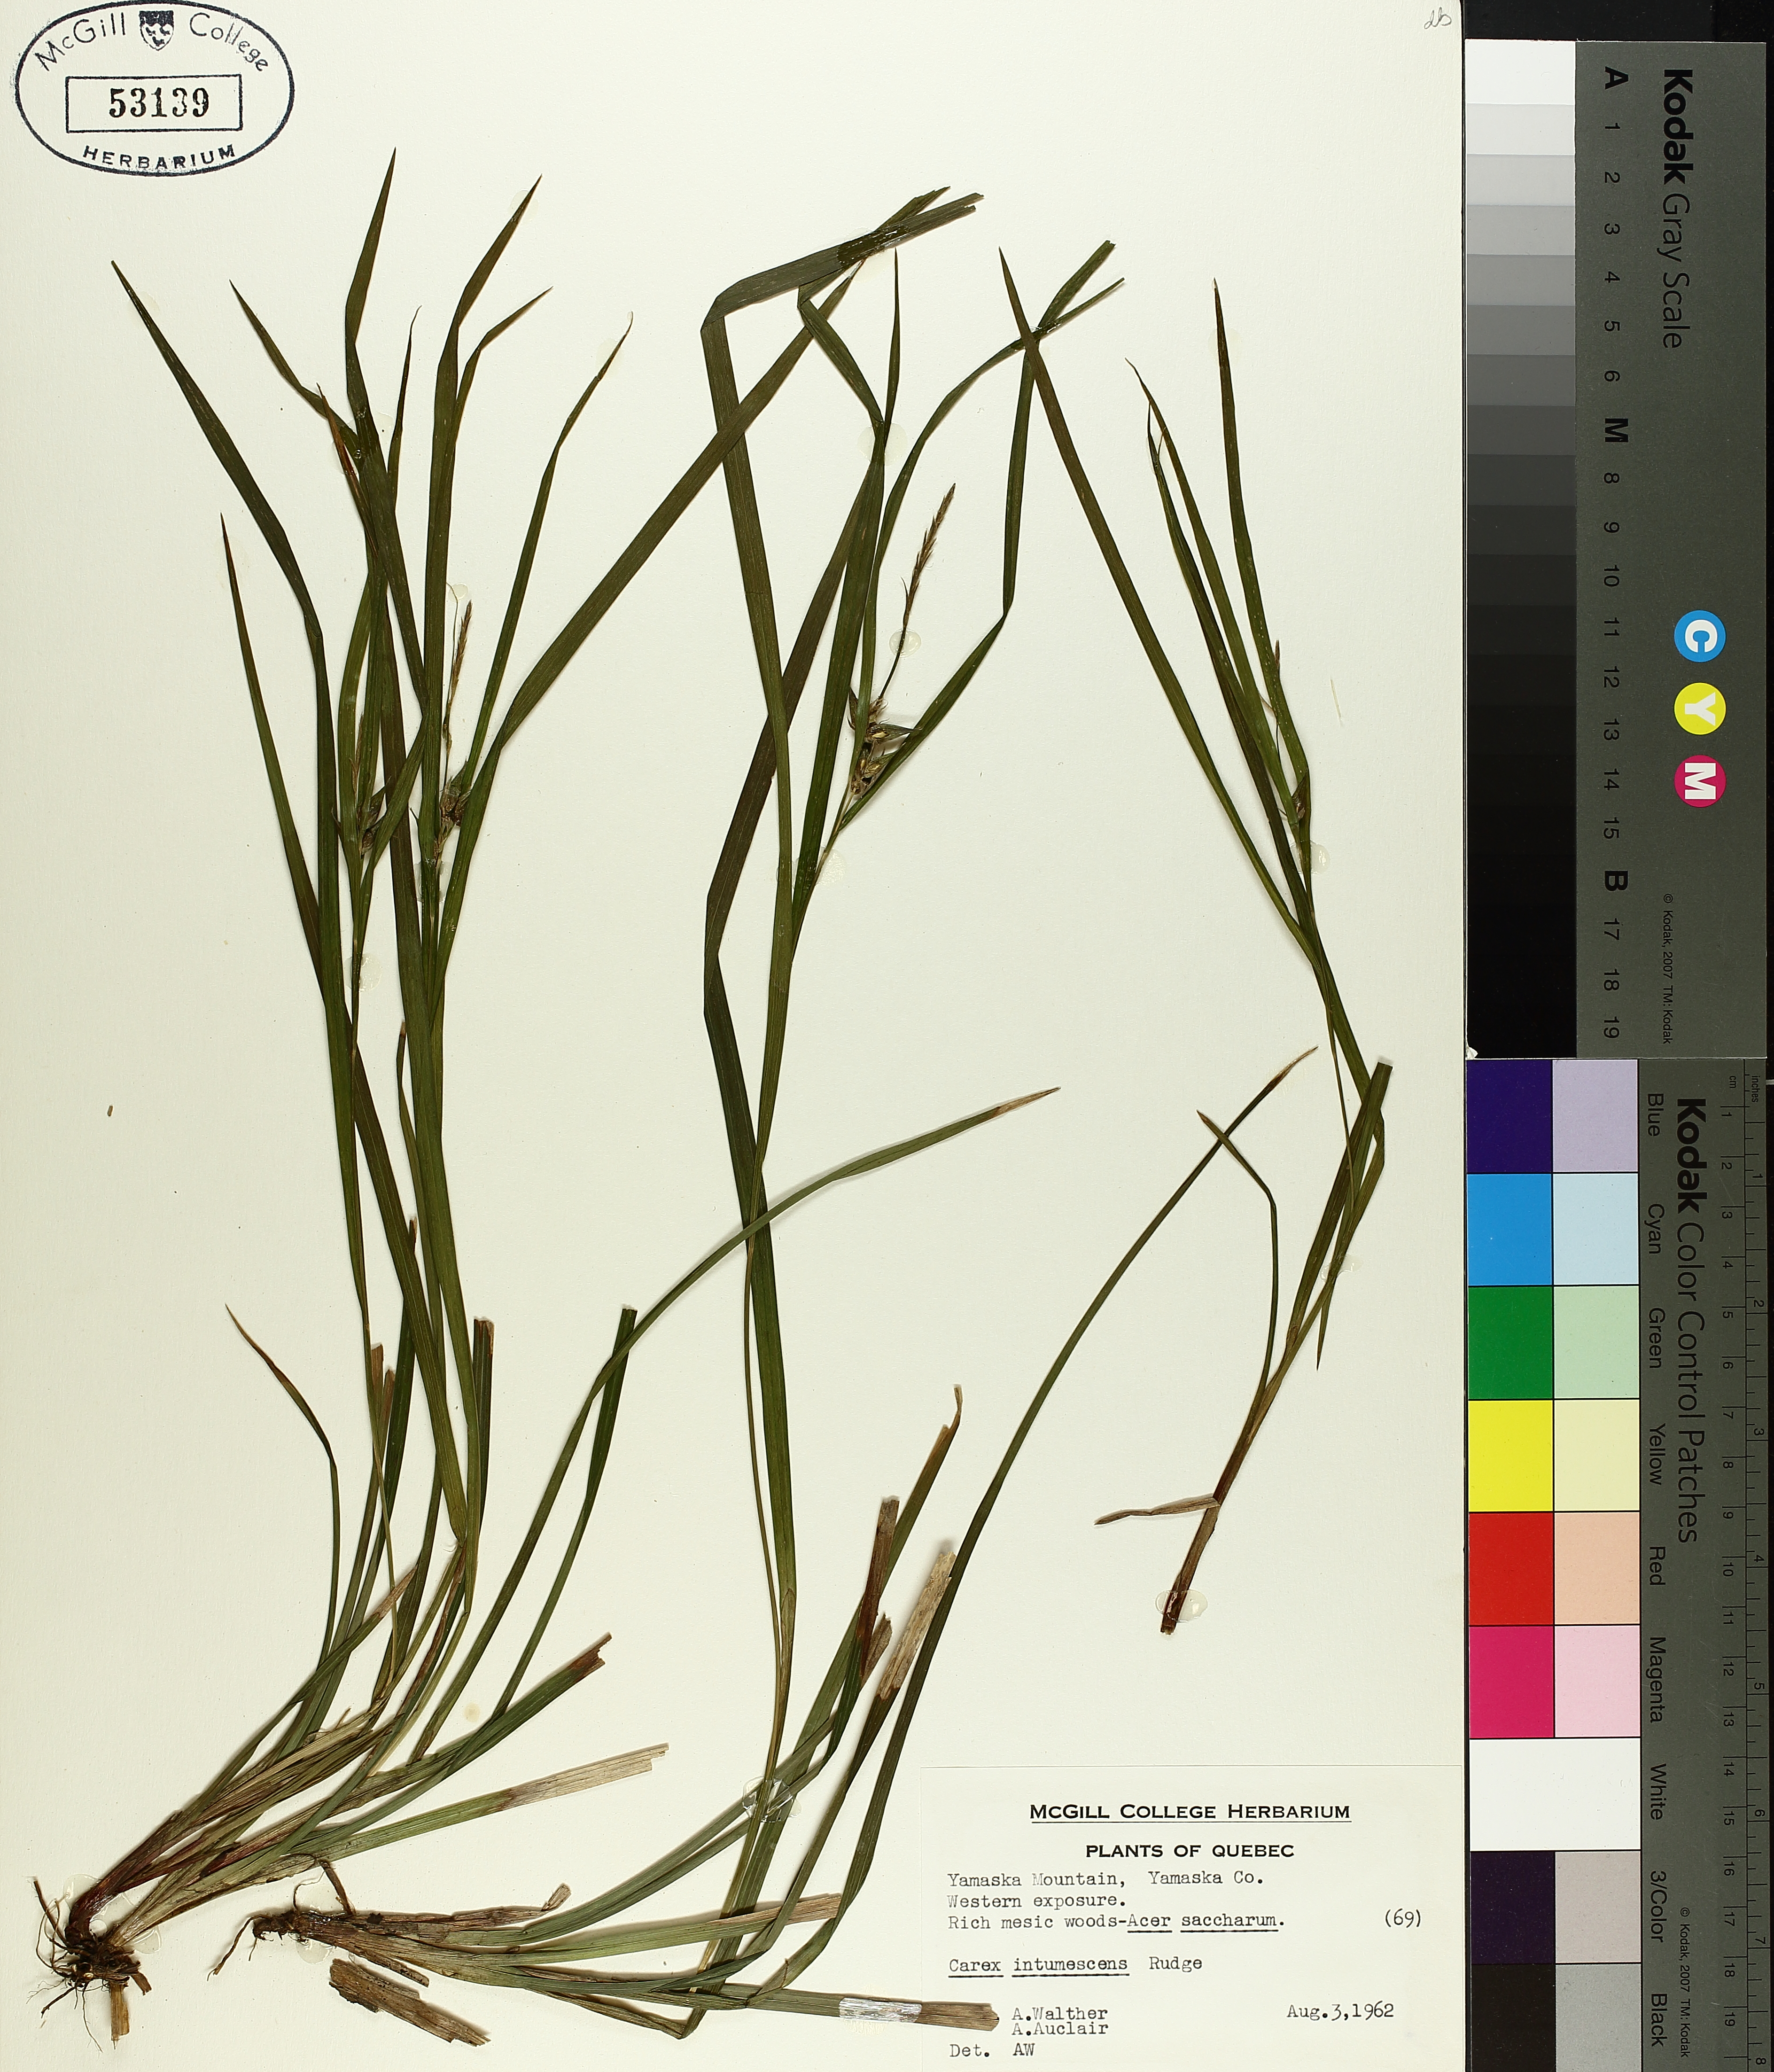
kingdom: Plantae
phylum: Tracheophyta
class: Liliopsida
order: Poales
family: Cyperaceae
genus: Carex
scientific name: Carex intumescens
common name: Greater bladder sedge
